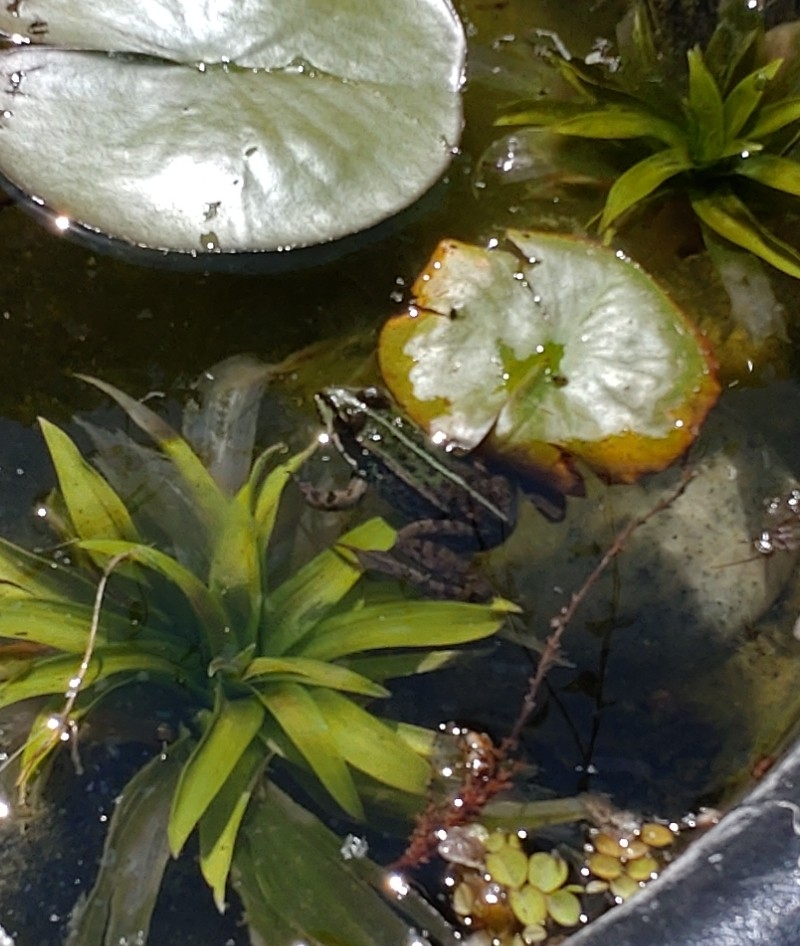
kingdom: Animalia
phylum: Chordata
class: Amphibia
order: Anura
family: Ranidae
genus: Pelophylax
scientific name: Pelophylax lessonae
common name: Grøn frø
